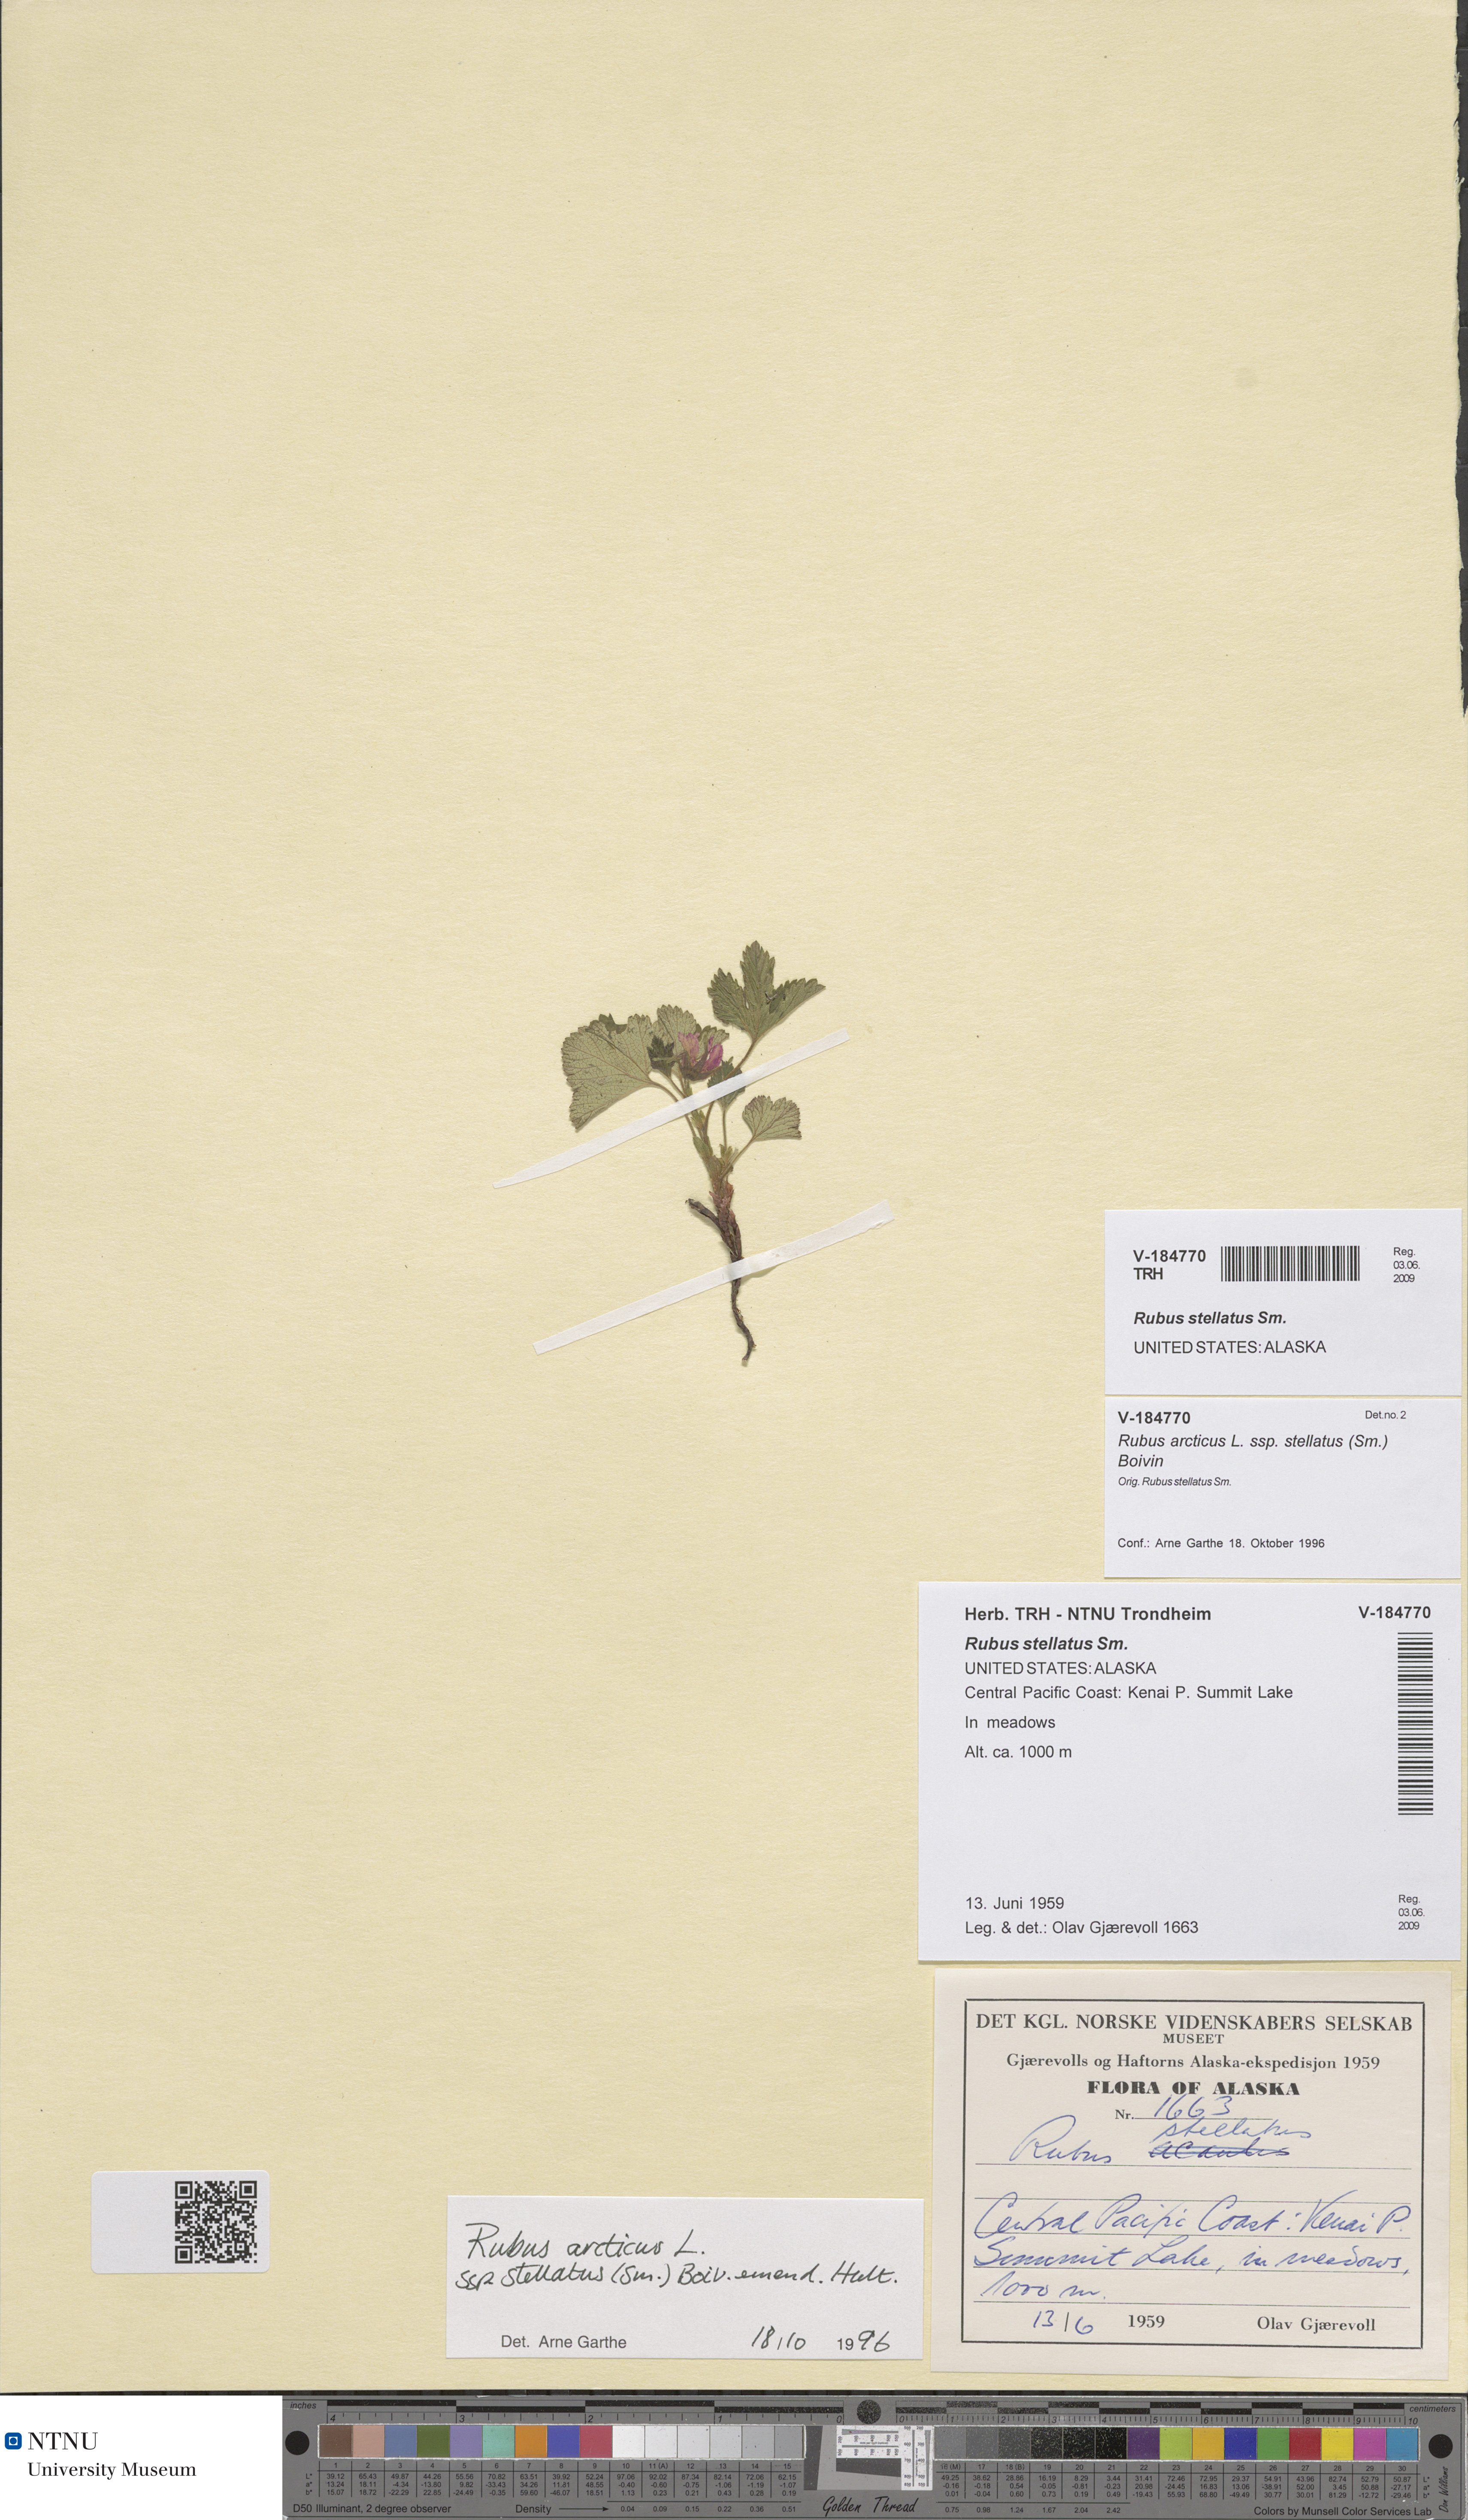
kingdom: Plantae
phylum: Tracheophyta
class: Magnoliopsida
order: Rosales
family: Rosaceae
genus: Rubus
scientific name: Rubus arcticus
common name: Arctic bramble
